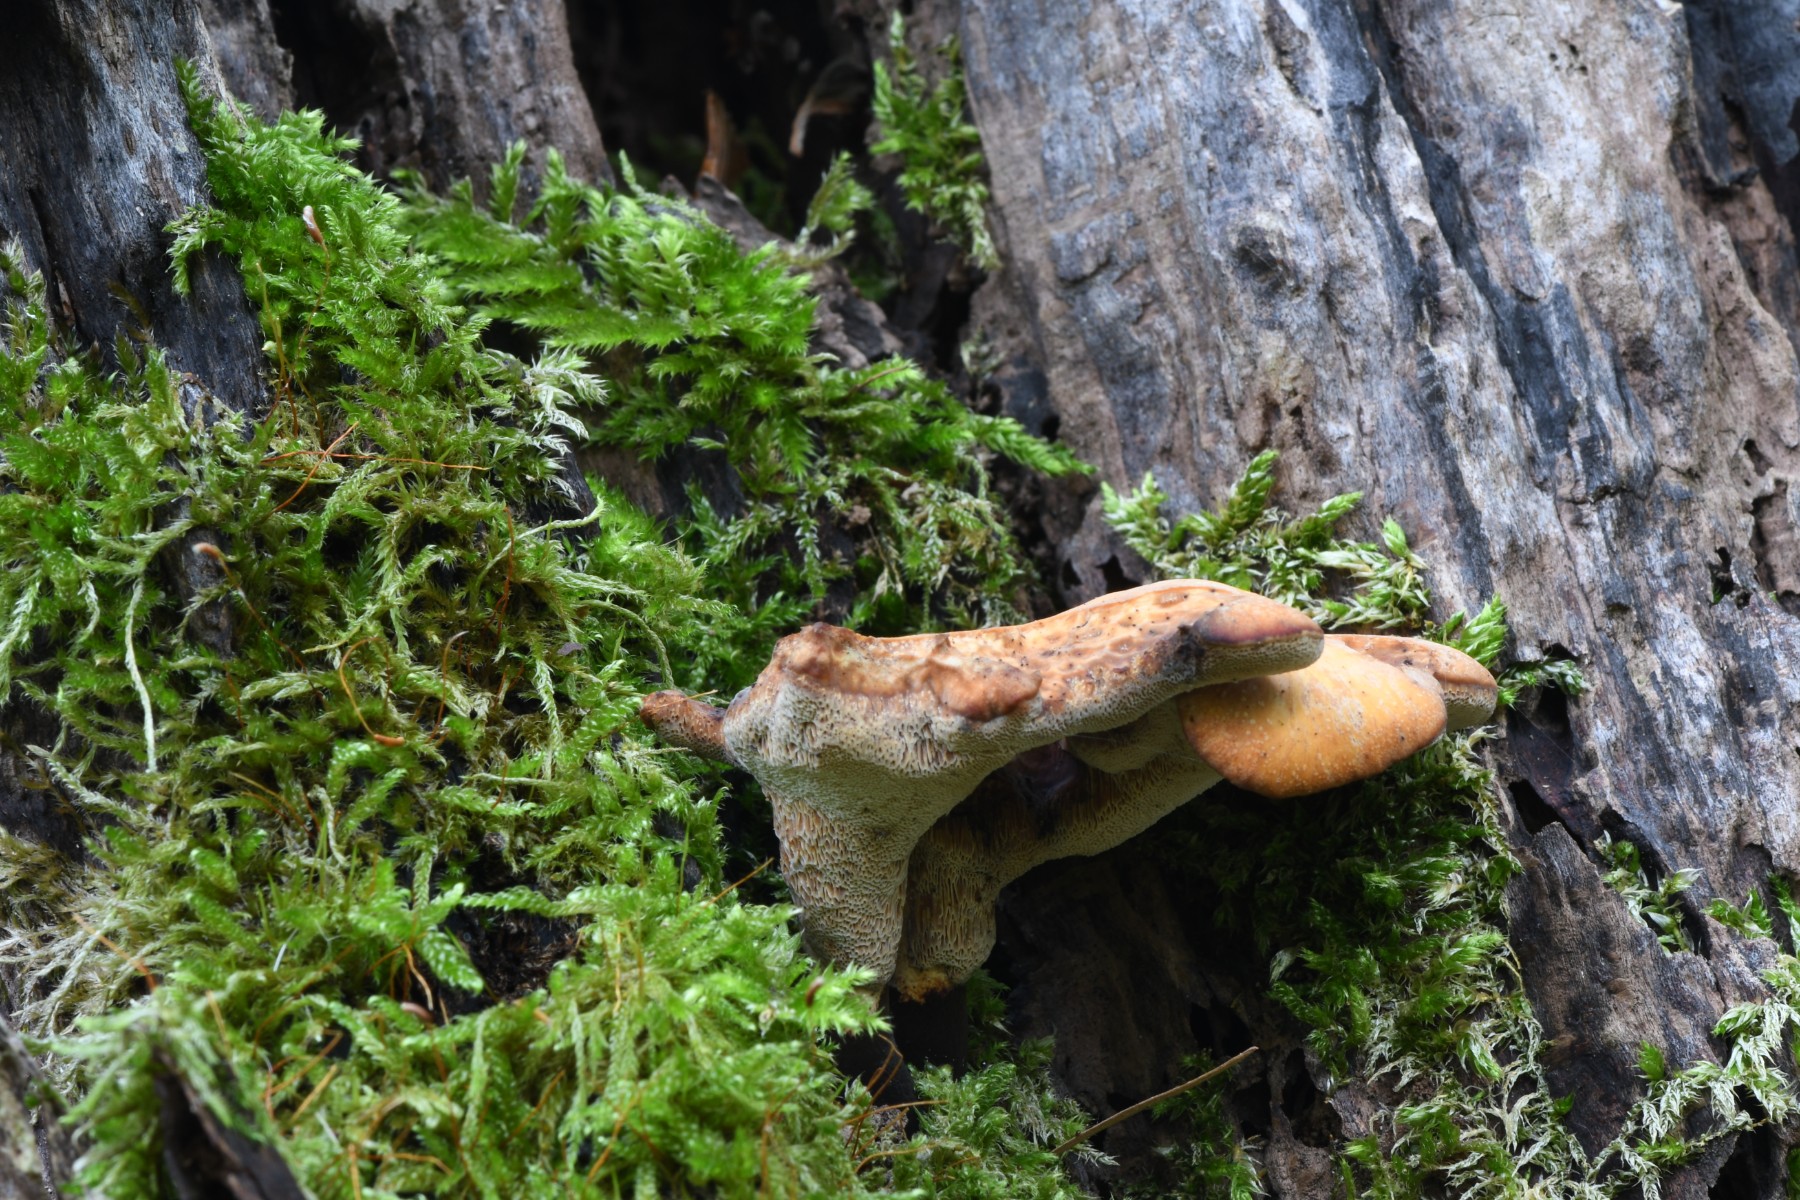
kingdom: Fungi
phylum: Basidiomycota
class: Agaricomycetes
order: Polyporales
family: Polyporaceae
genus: Cerioporus
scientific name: Cerioporus varius
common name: foranderlig stilkporesvamp
